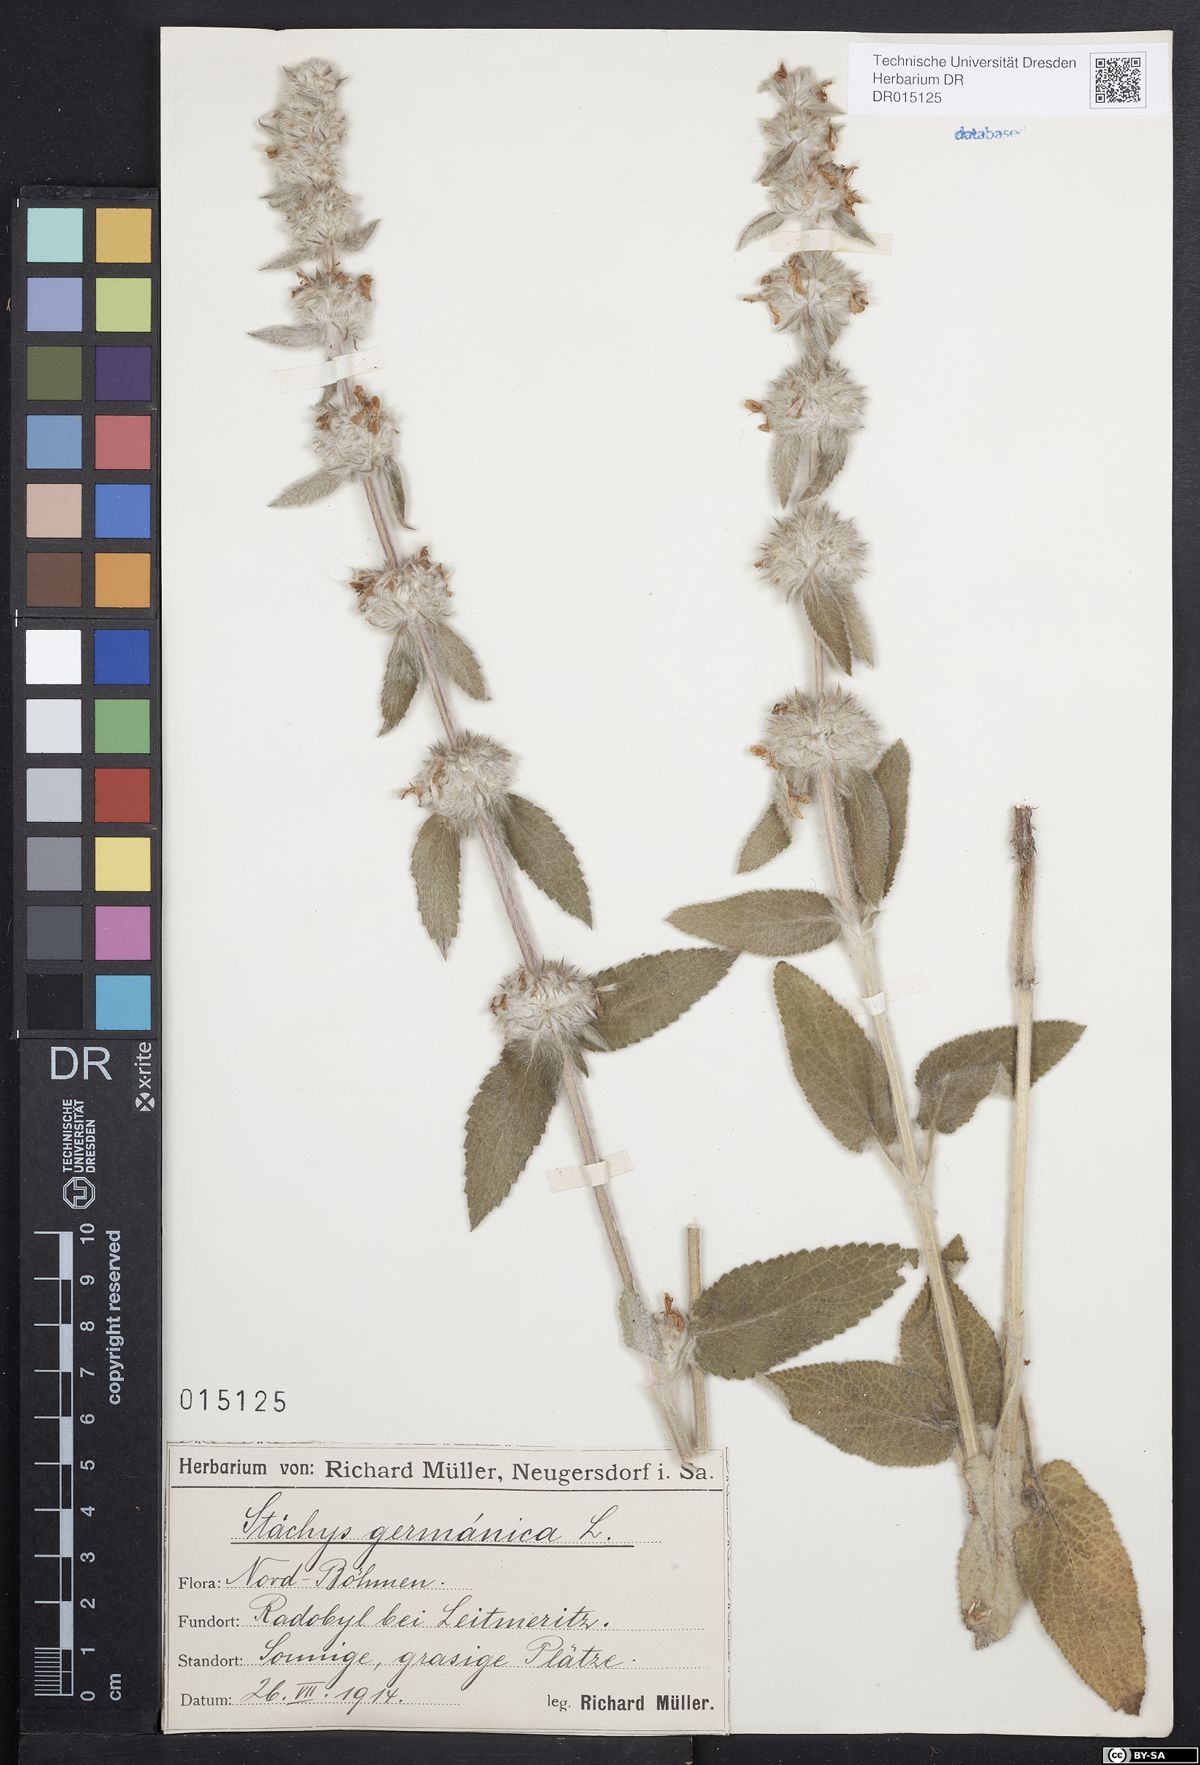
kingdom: Plantae
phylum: Tracheophyta
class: Magnoliopsida
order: Lamiales
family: Lamiaceae
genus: Stachys
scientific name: Stachys germanica
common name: Downy woundwort
